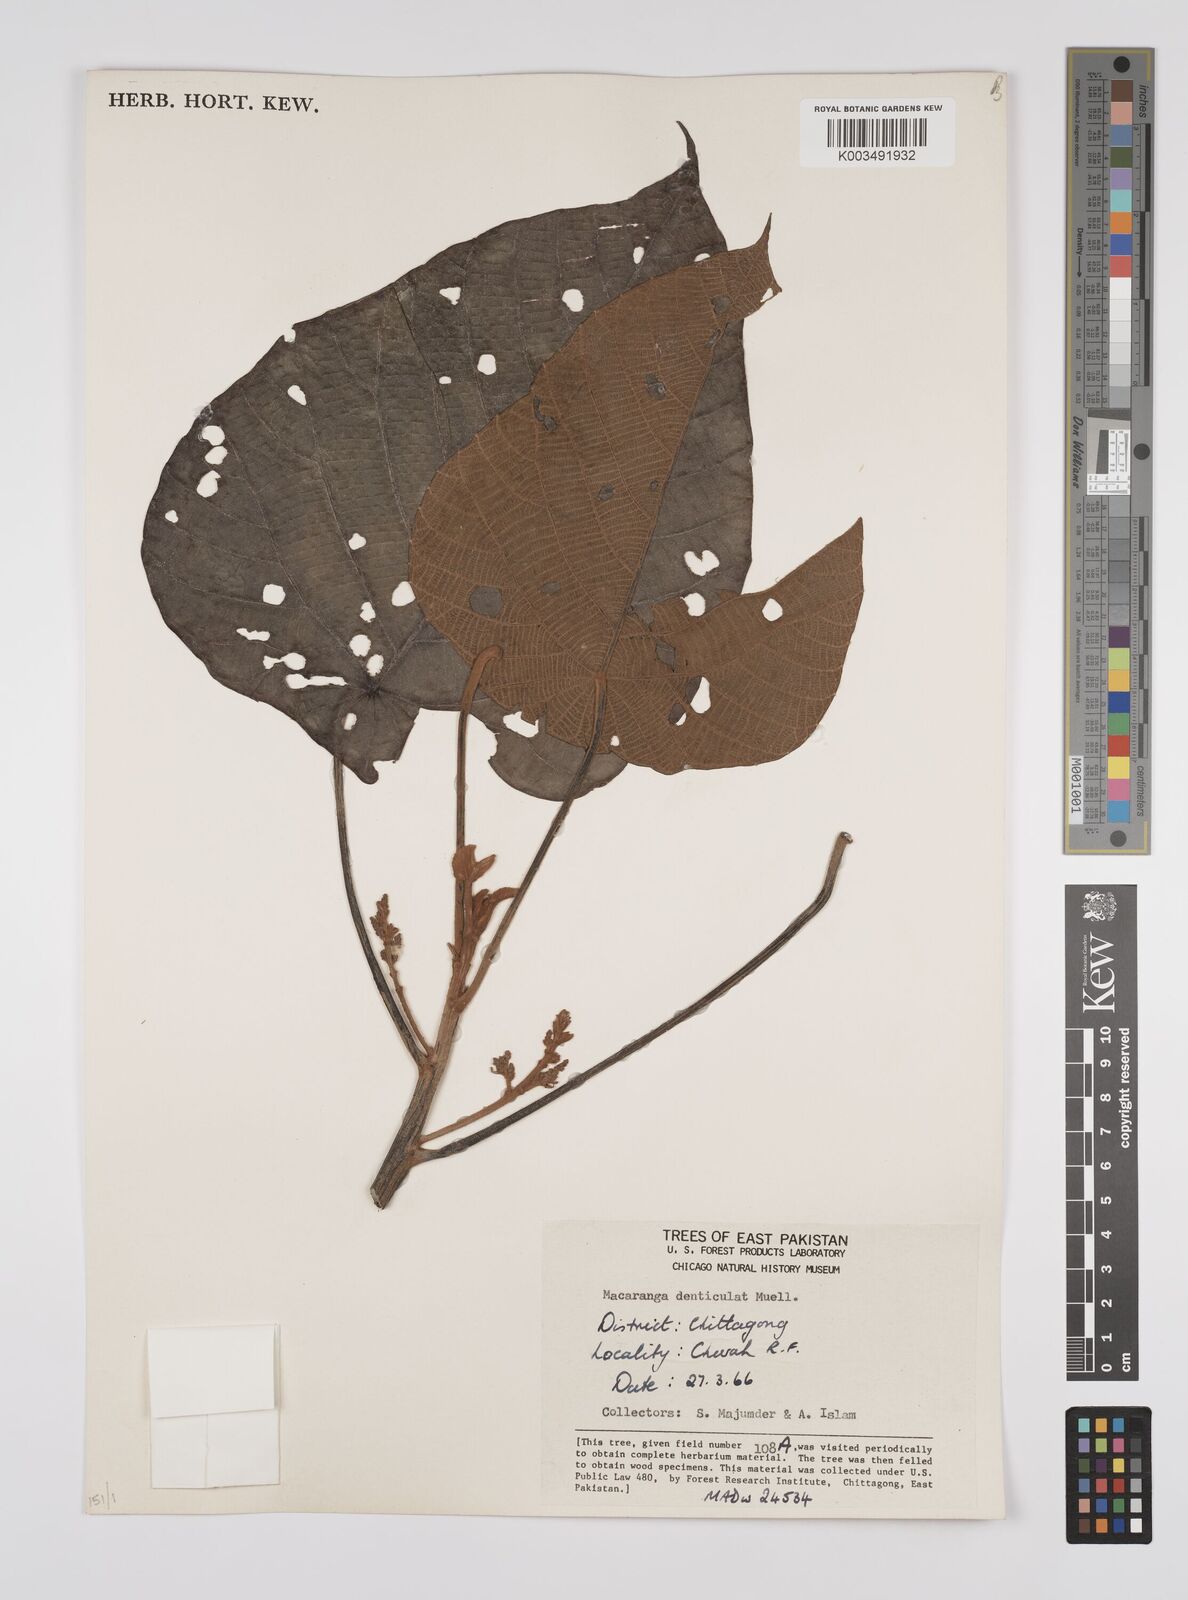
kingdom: Plantae
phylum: Tracheophyta
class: Magnoliopsida
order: Malpighiales
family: Euphorbiaceae
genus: Macaranga
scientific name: Macaranga denticulata
